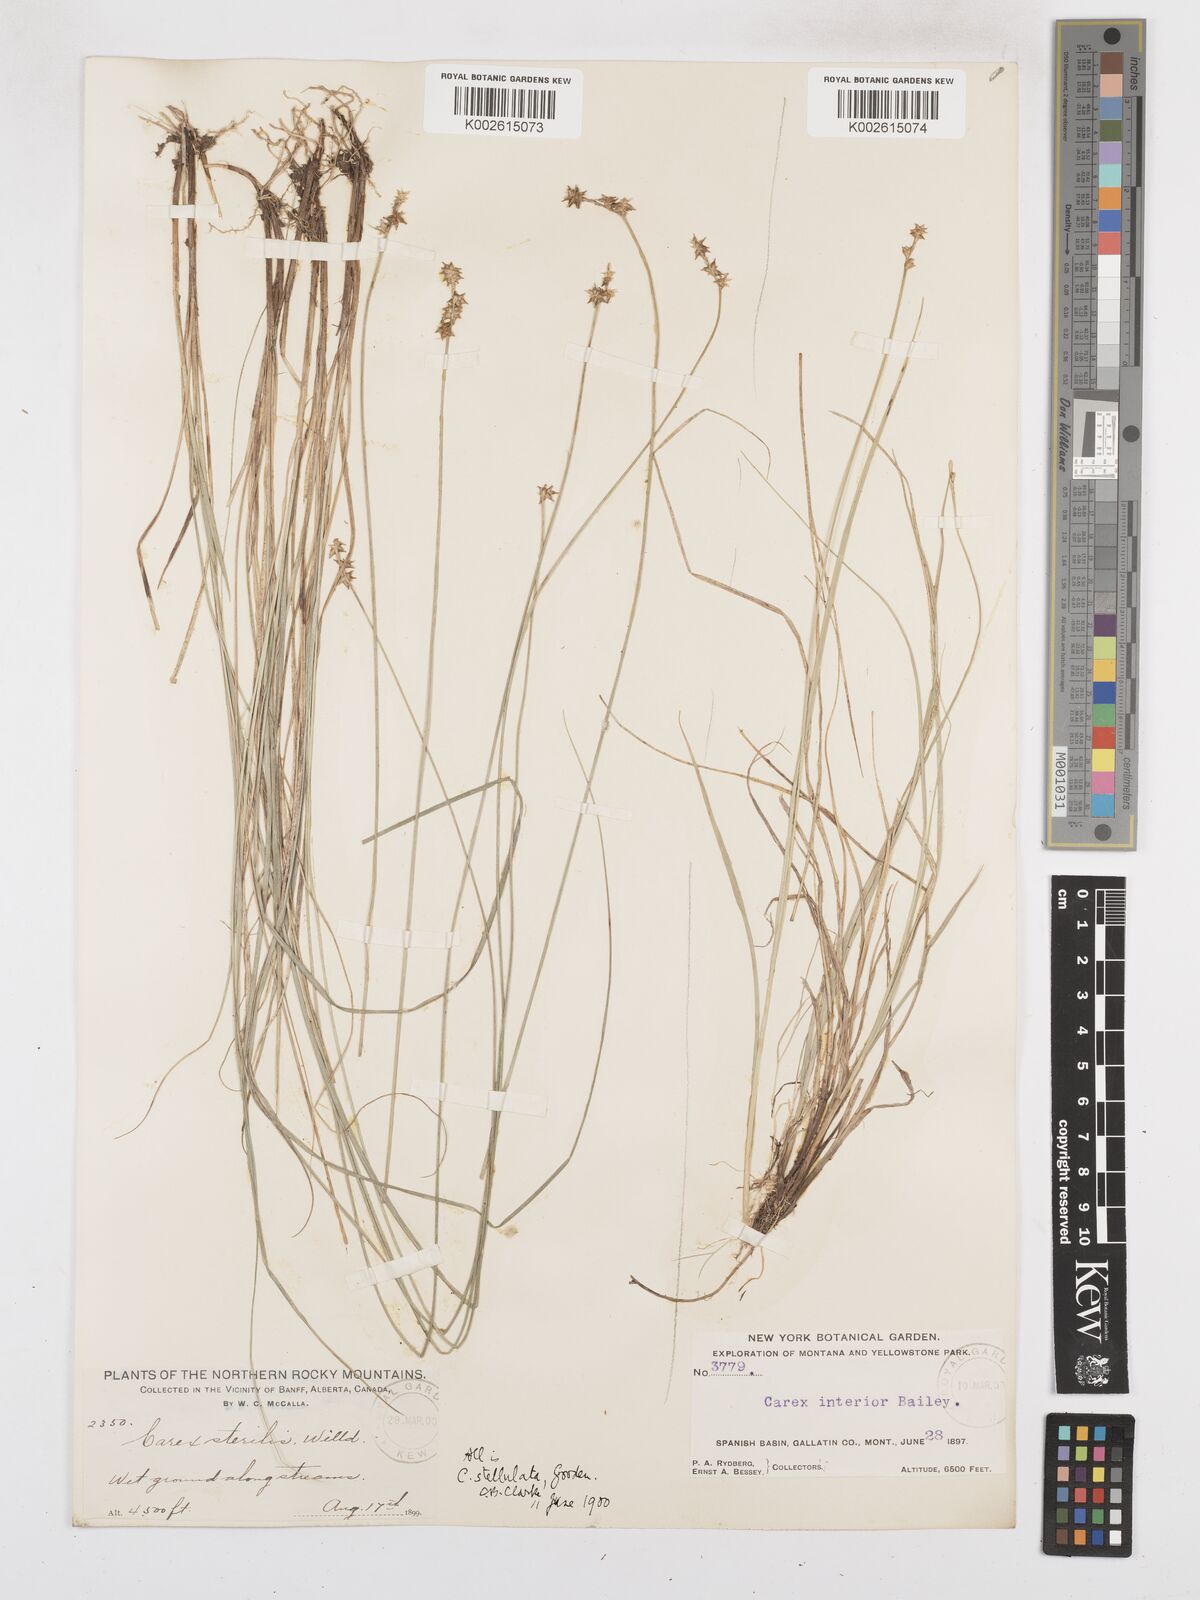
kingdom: Plantae
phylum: Tracheophyta
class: Liliopsida
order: Poales
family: Cyperaceae
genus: Carex
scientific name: Carex sterilis
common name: Dioecious sedge
